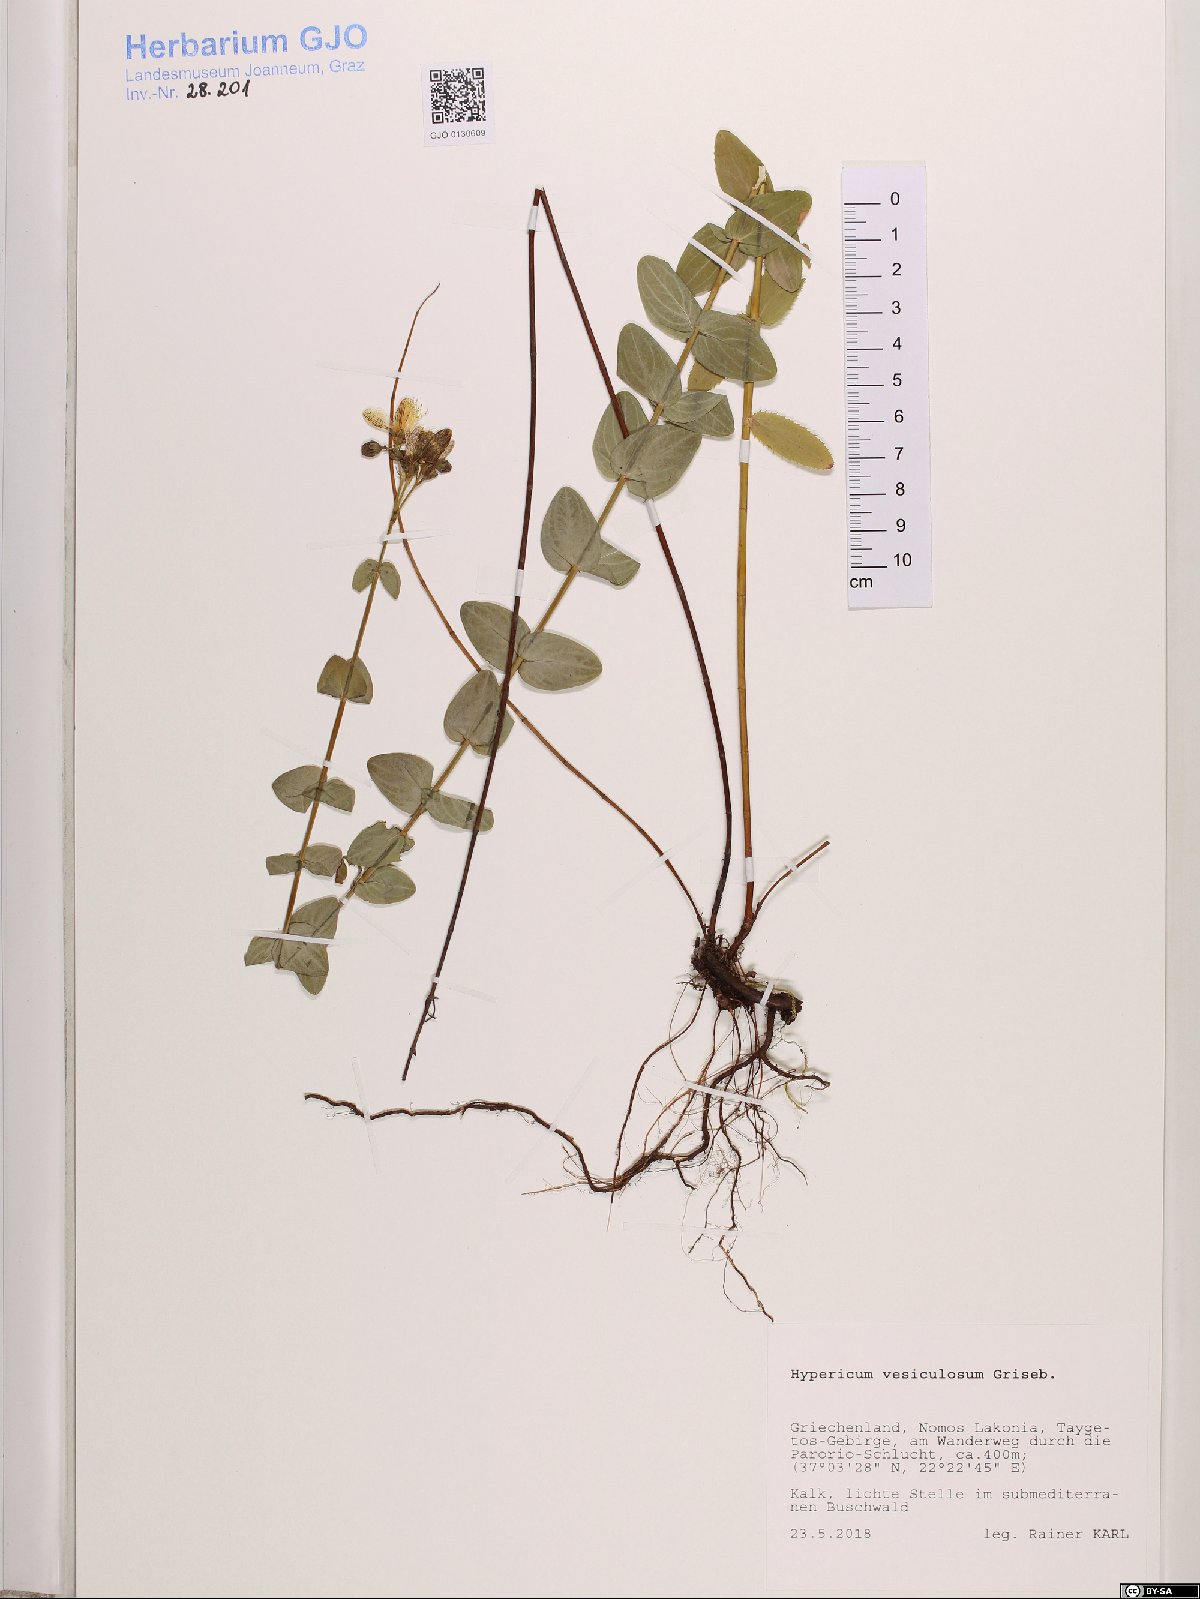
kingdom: Plantae
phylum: Tracheophyta
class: Magnoliopsida
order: Malpighiales
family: Hypericaceae
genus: Hypericum
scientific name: Hypericum vesiculosum
